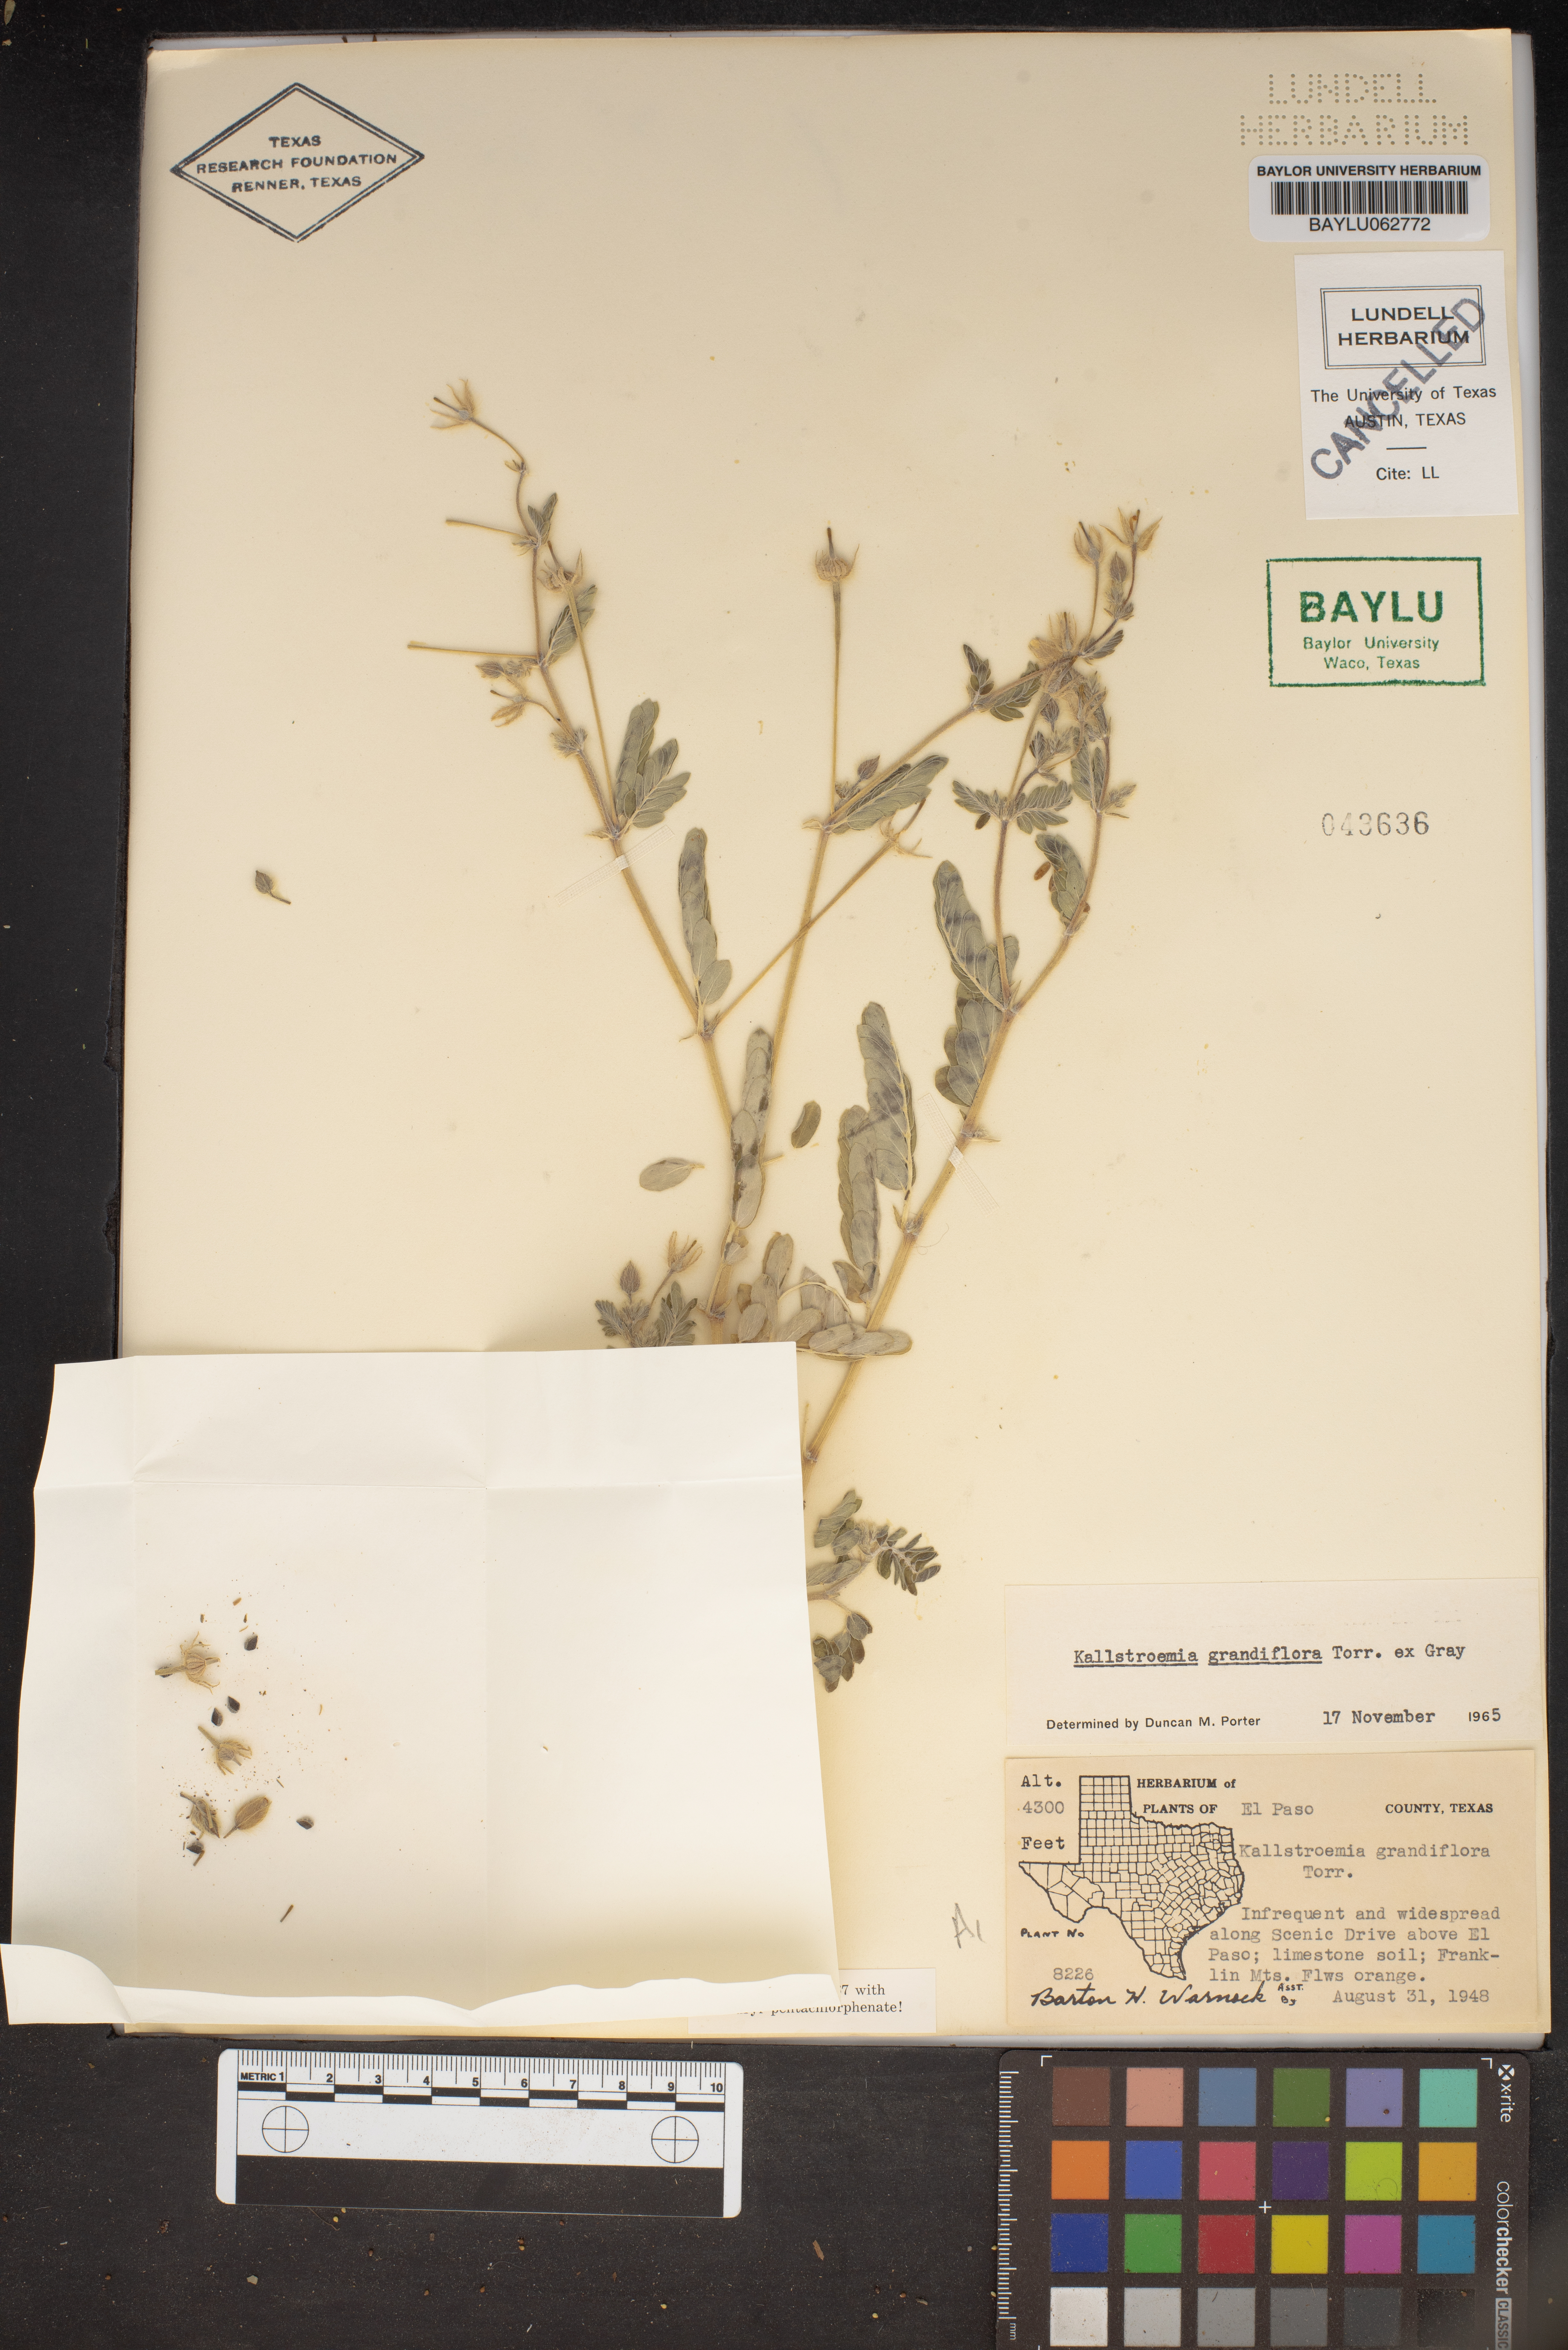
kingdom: Plantae
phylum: Tracheophyta
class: Magnoliopsida
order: Zygophyllales
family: Zygophyllaceae
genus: Kallstroemia
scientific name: Kallstroemia grandiflora
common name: Arizona-poppy
